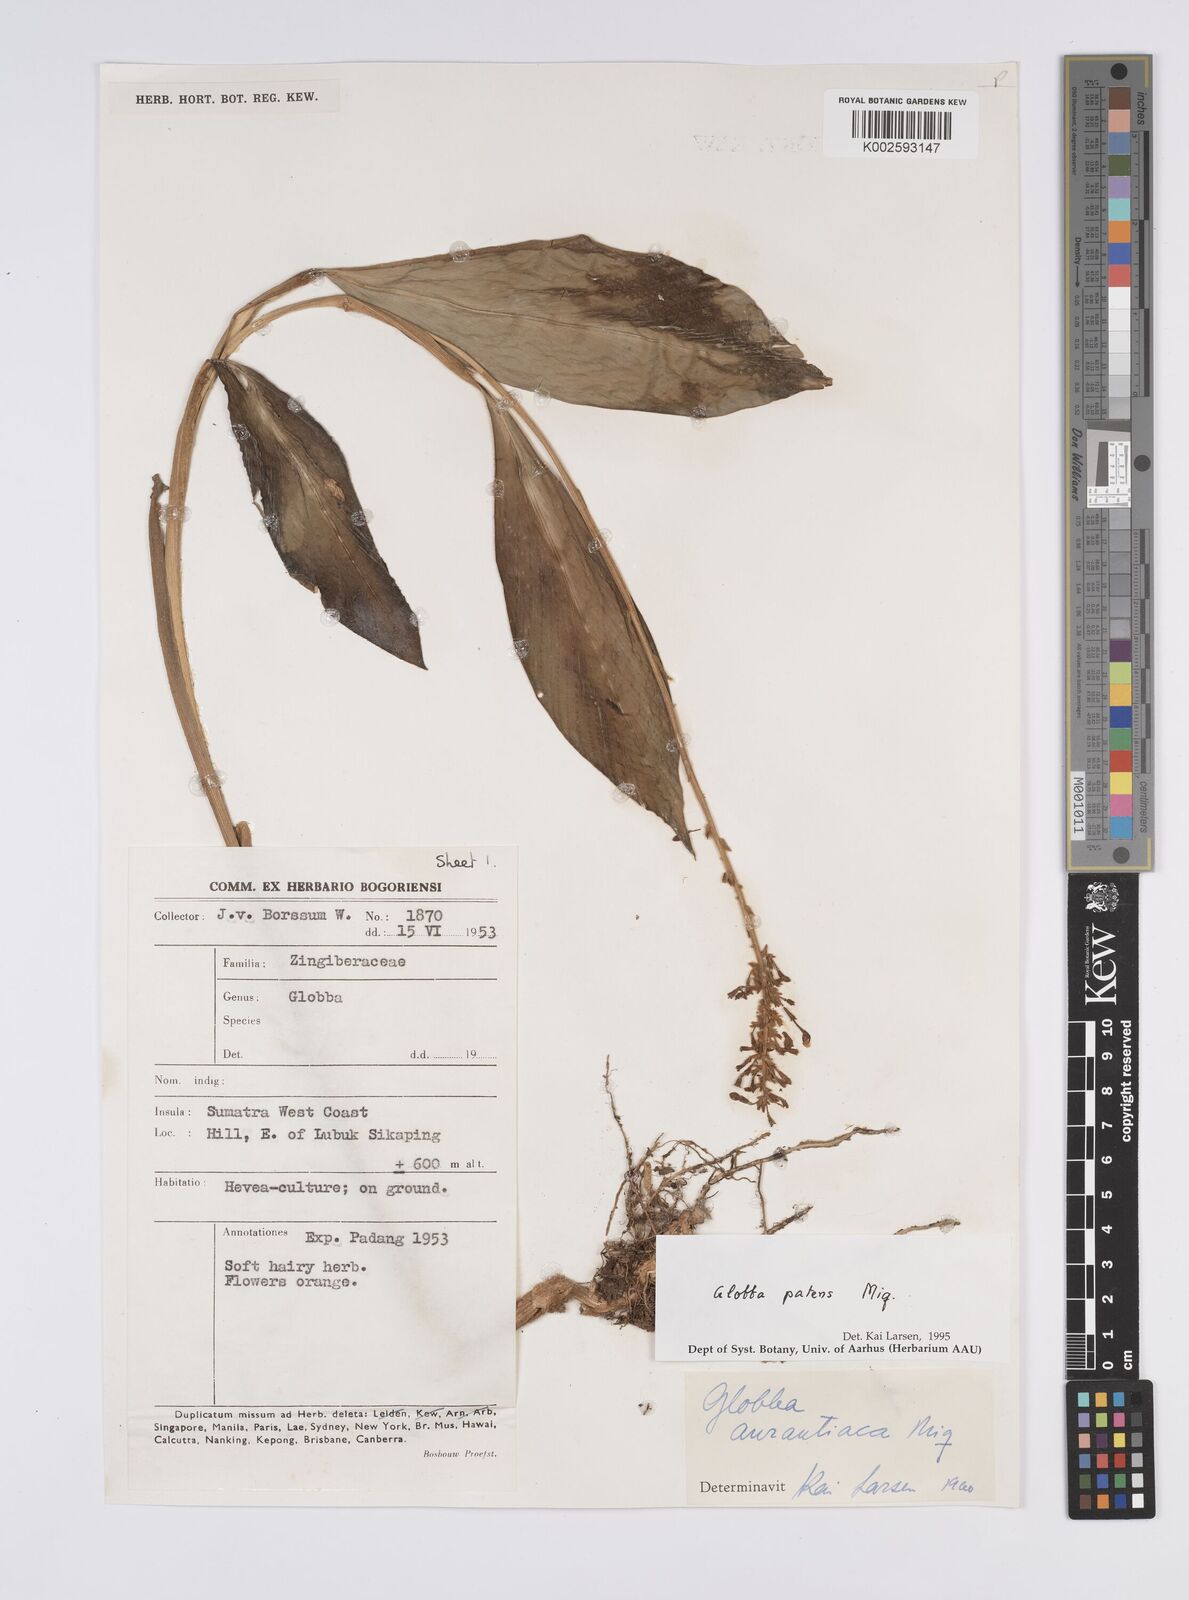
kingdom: Plantae
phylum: Tracheophyta
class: Liliopsida
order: Zingiberales
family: Zingiberaceae
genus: Globba
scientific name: Globba patens
